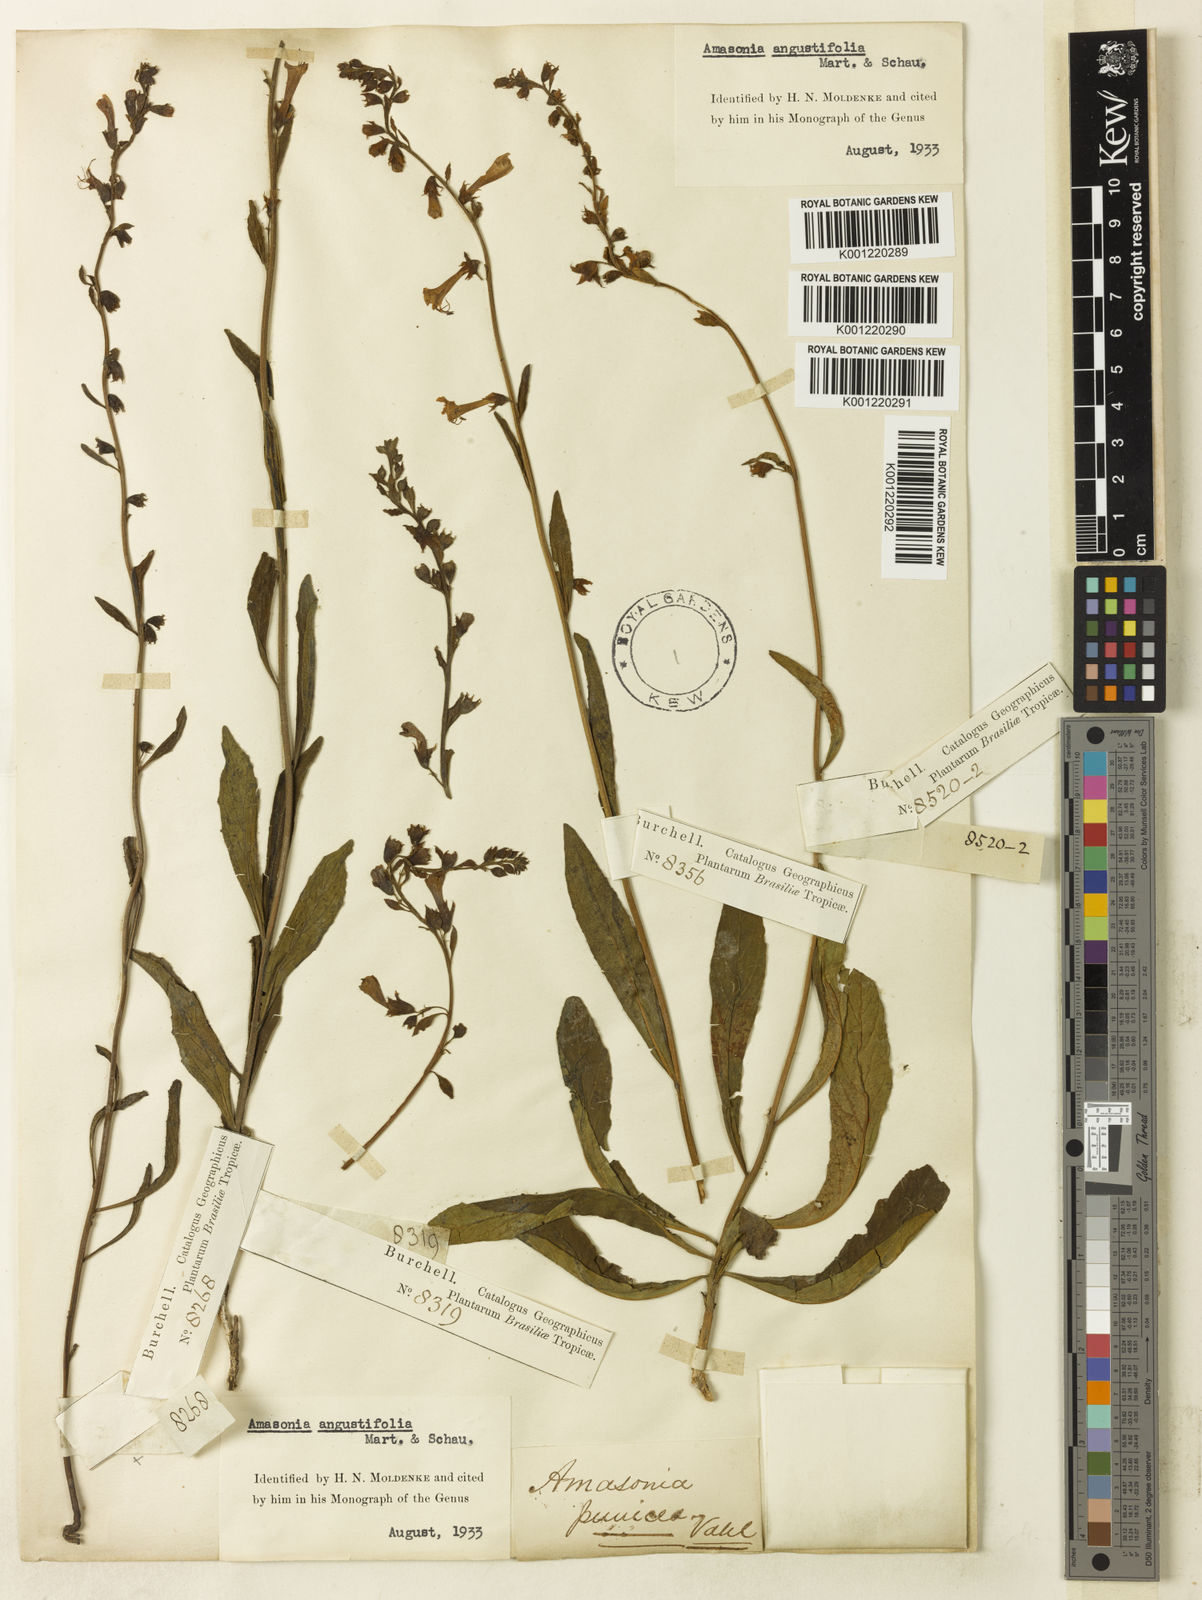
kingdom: Plantae
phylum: Tracheophyta
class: Magnoliopsida
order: Lamiales
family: Lamiaceae
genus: Amasonia
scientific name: Amasonia angustifolia
